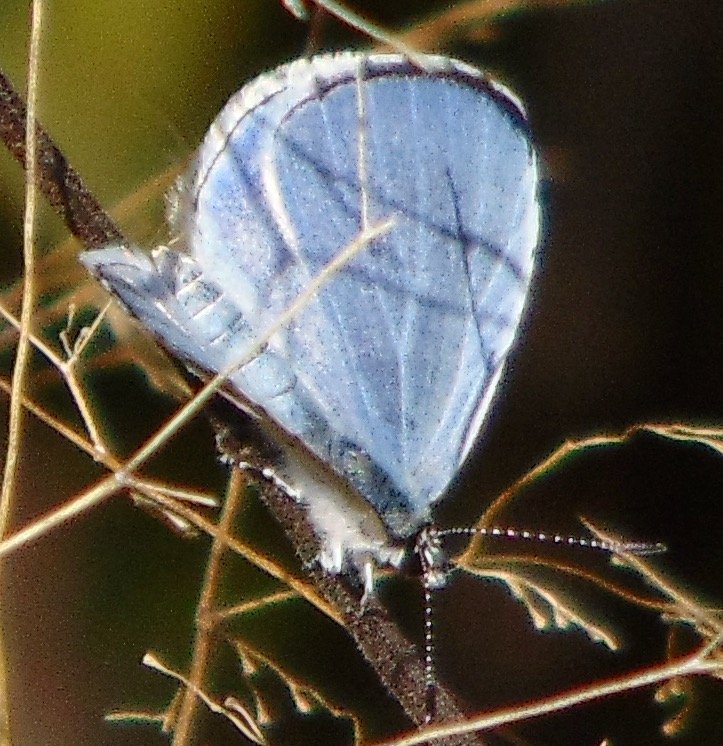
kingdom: Animalia
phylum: Arthropoda
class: Insecta
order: Lepidoptera
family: Lycaenidae
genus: Cyaniris
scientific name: Cyaniris neglecta
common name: Summer Azure
